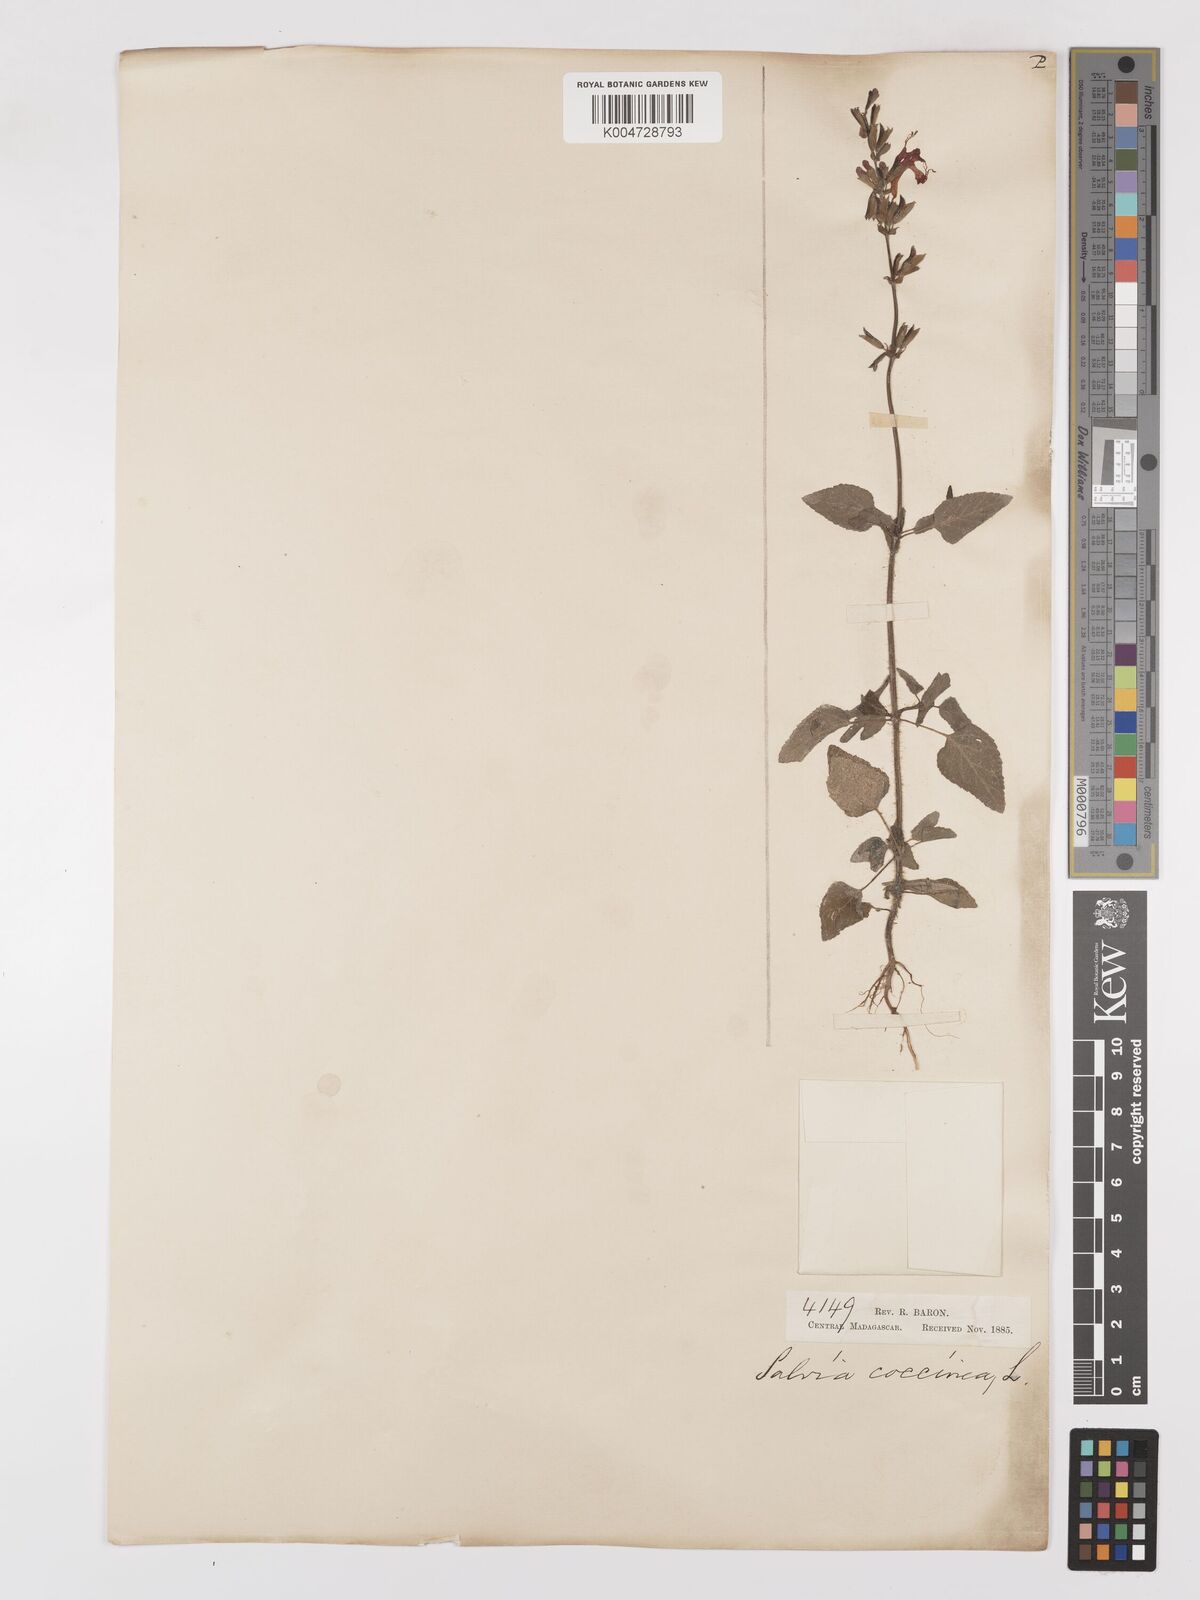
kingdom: Plantae
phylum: Tracheophyta
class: Magnoliopsida
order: Lamiales
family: Lamiaceae
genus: Salvia
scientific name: Salvia
